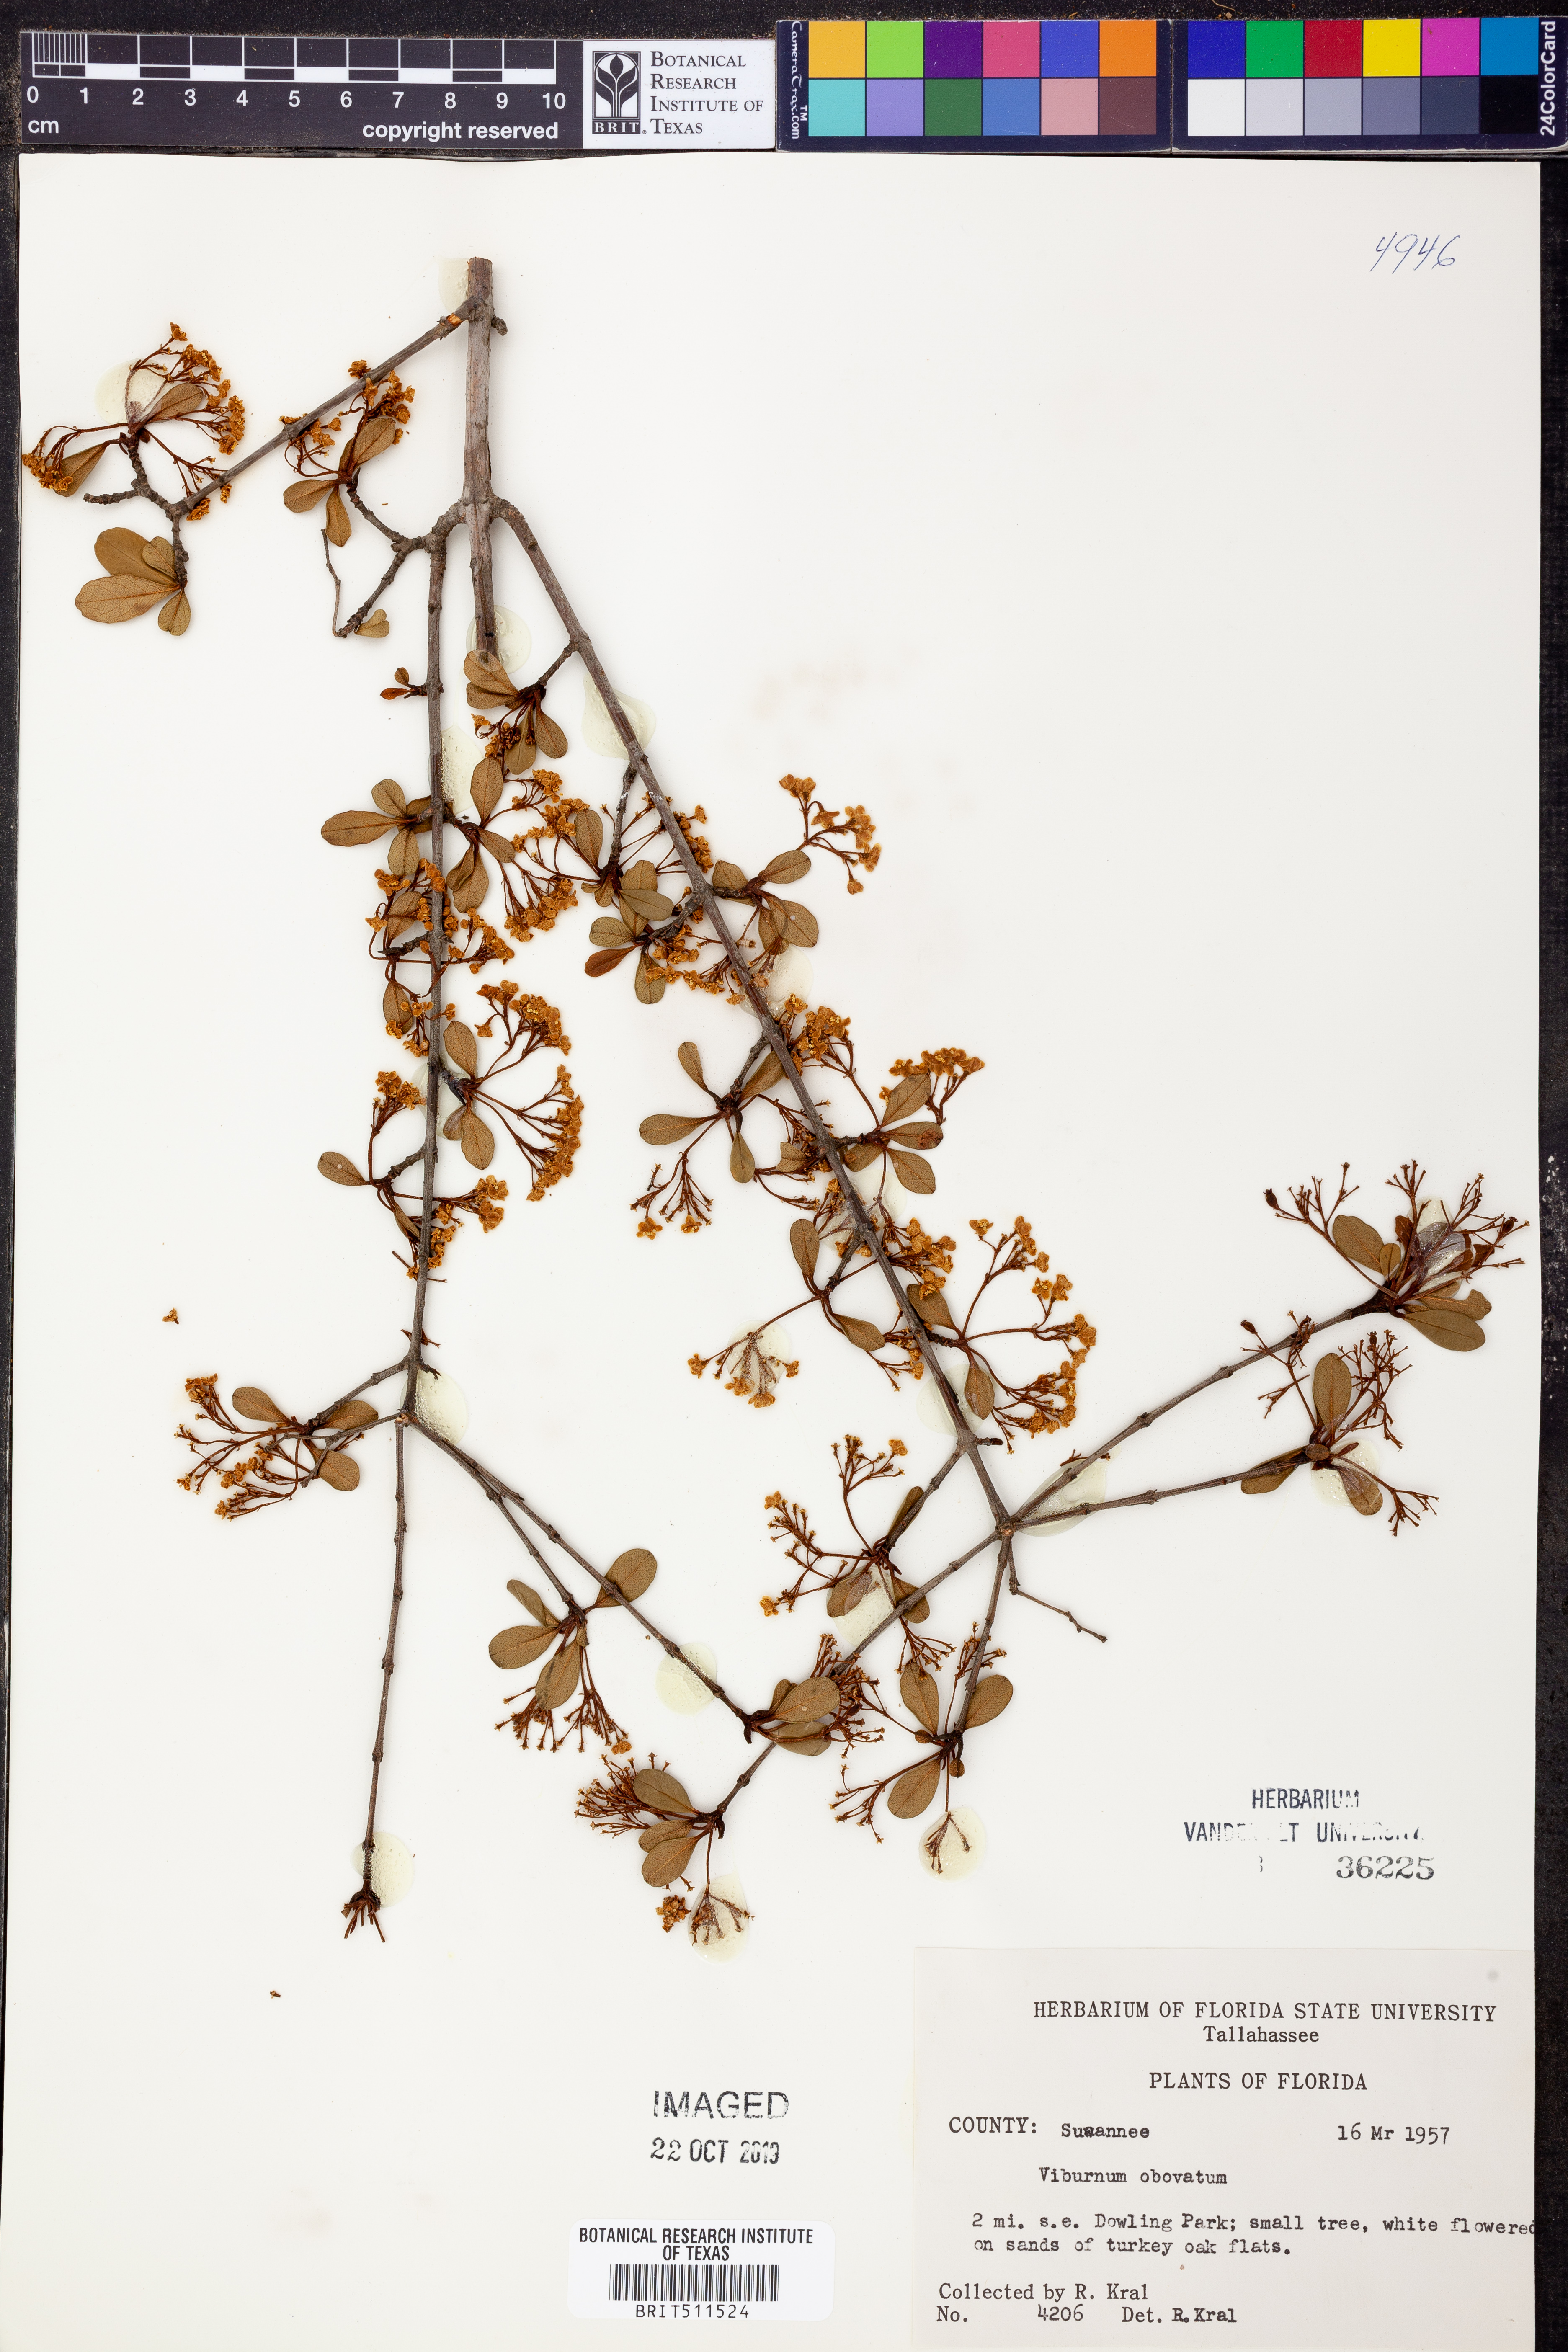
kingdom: Plantae
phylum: Tracheophyta
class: Magnoliopsida
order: Dipsacales
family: Viburnaceae
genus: Viburnum
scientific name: Viburnum obovatum
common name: Walter's viburnum
